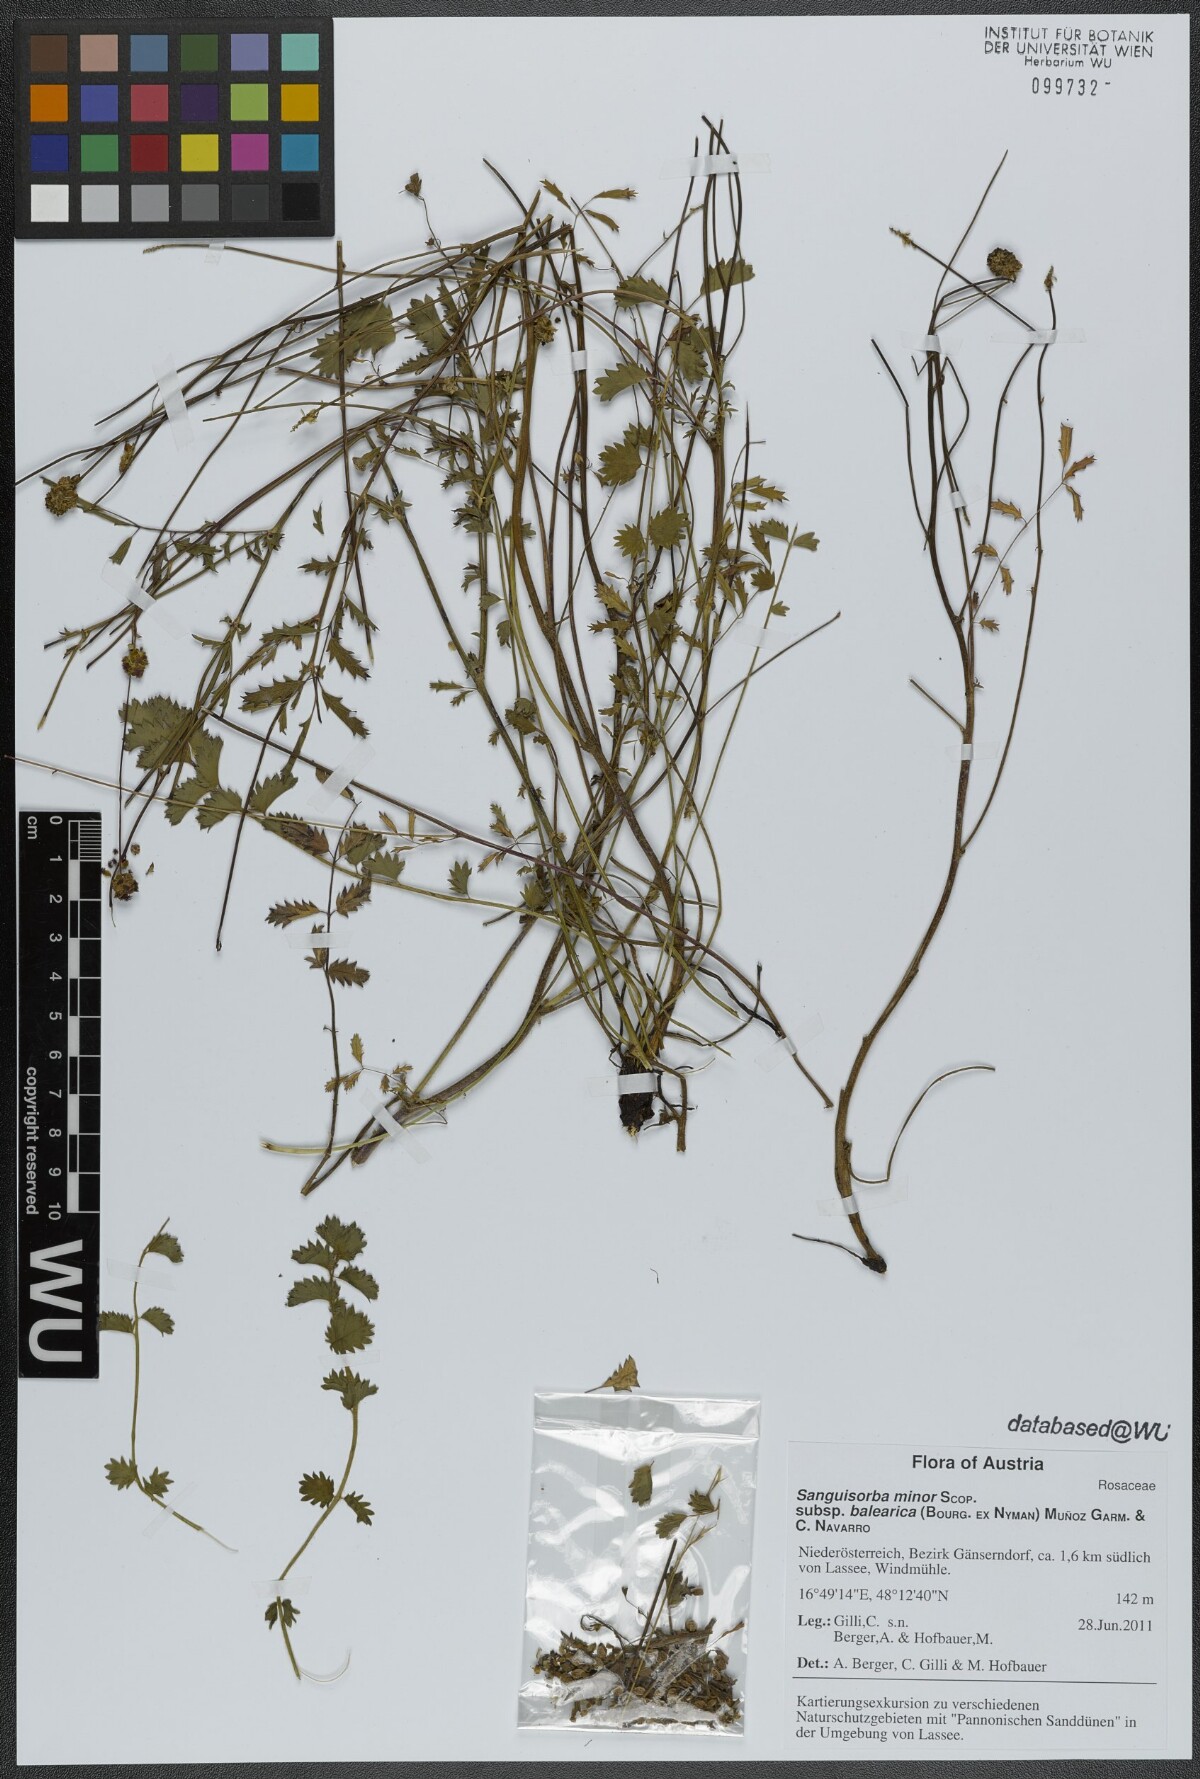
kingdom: Plantae
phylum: Tracheophyta
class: Magnoliopsida
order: Rosales
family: Rosaceae
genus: Poterium
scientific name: Poterium sanguisorba
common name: Salad burnet
